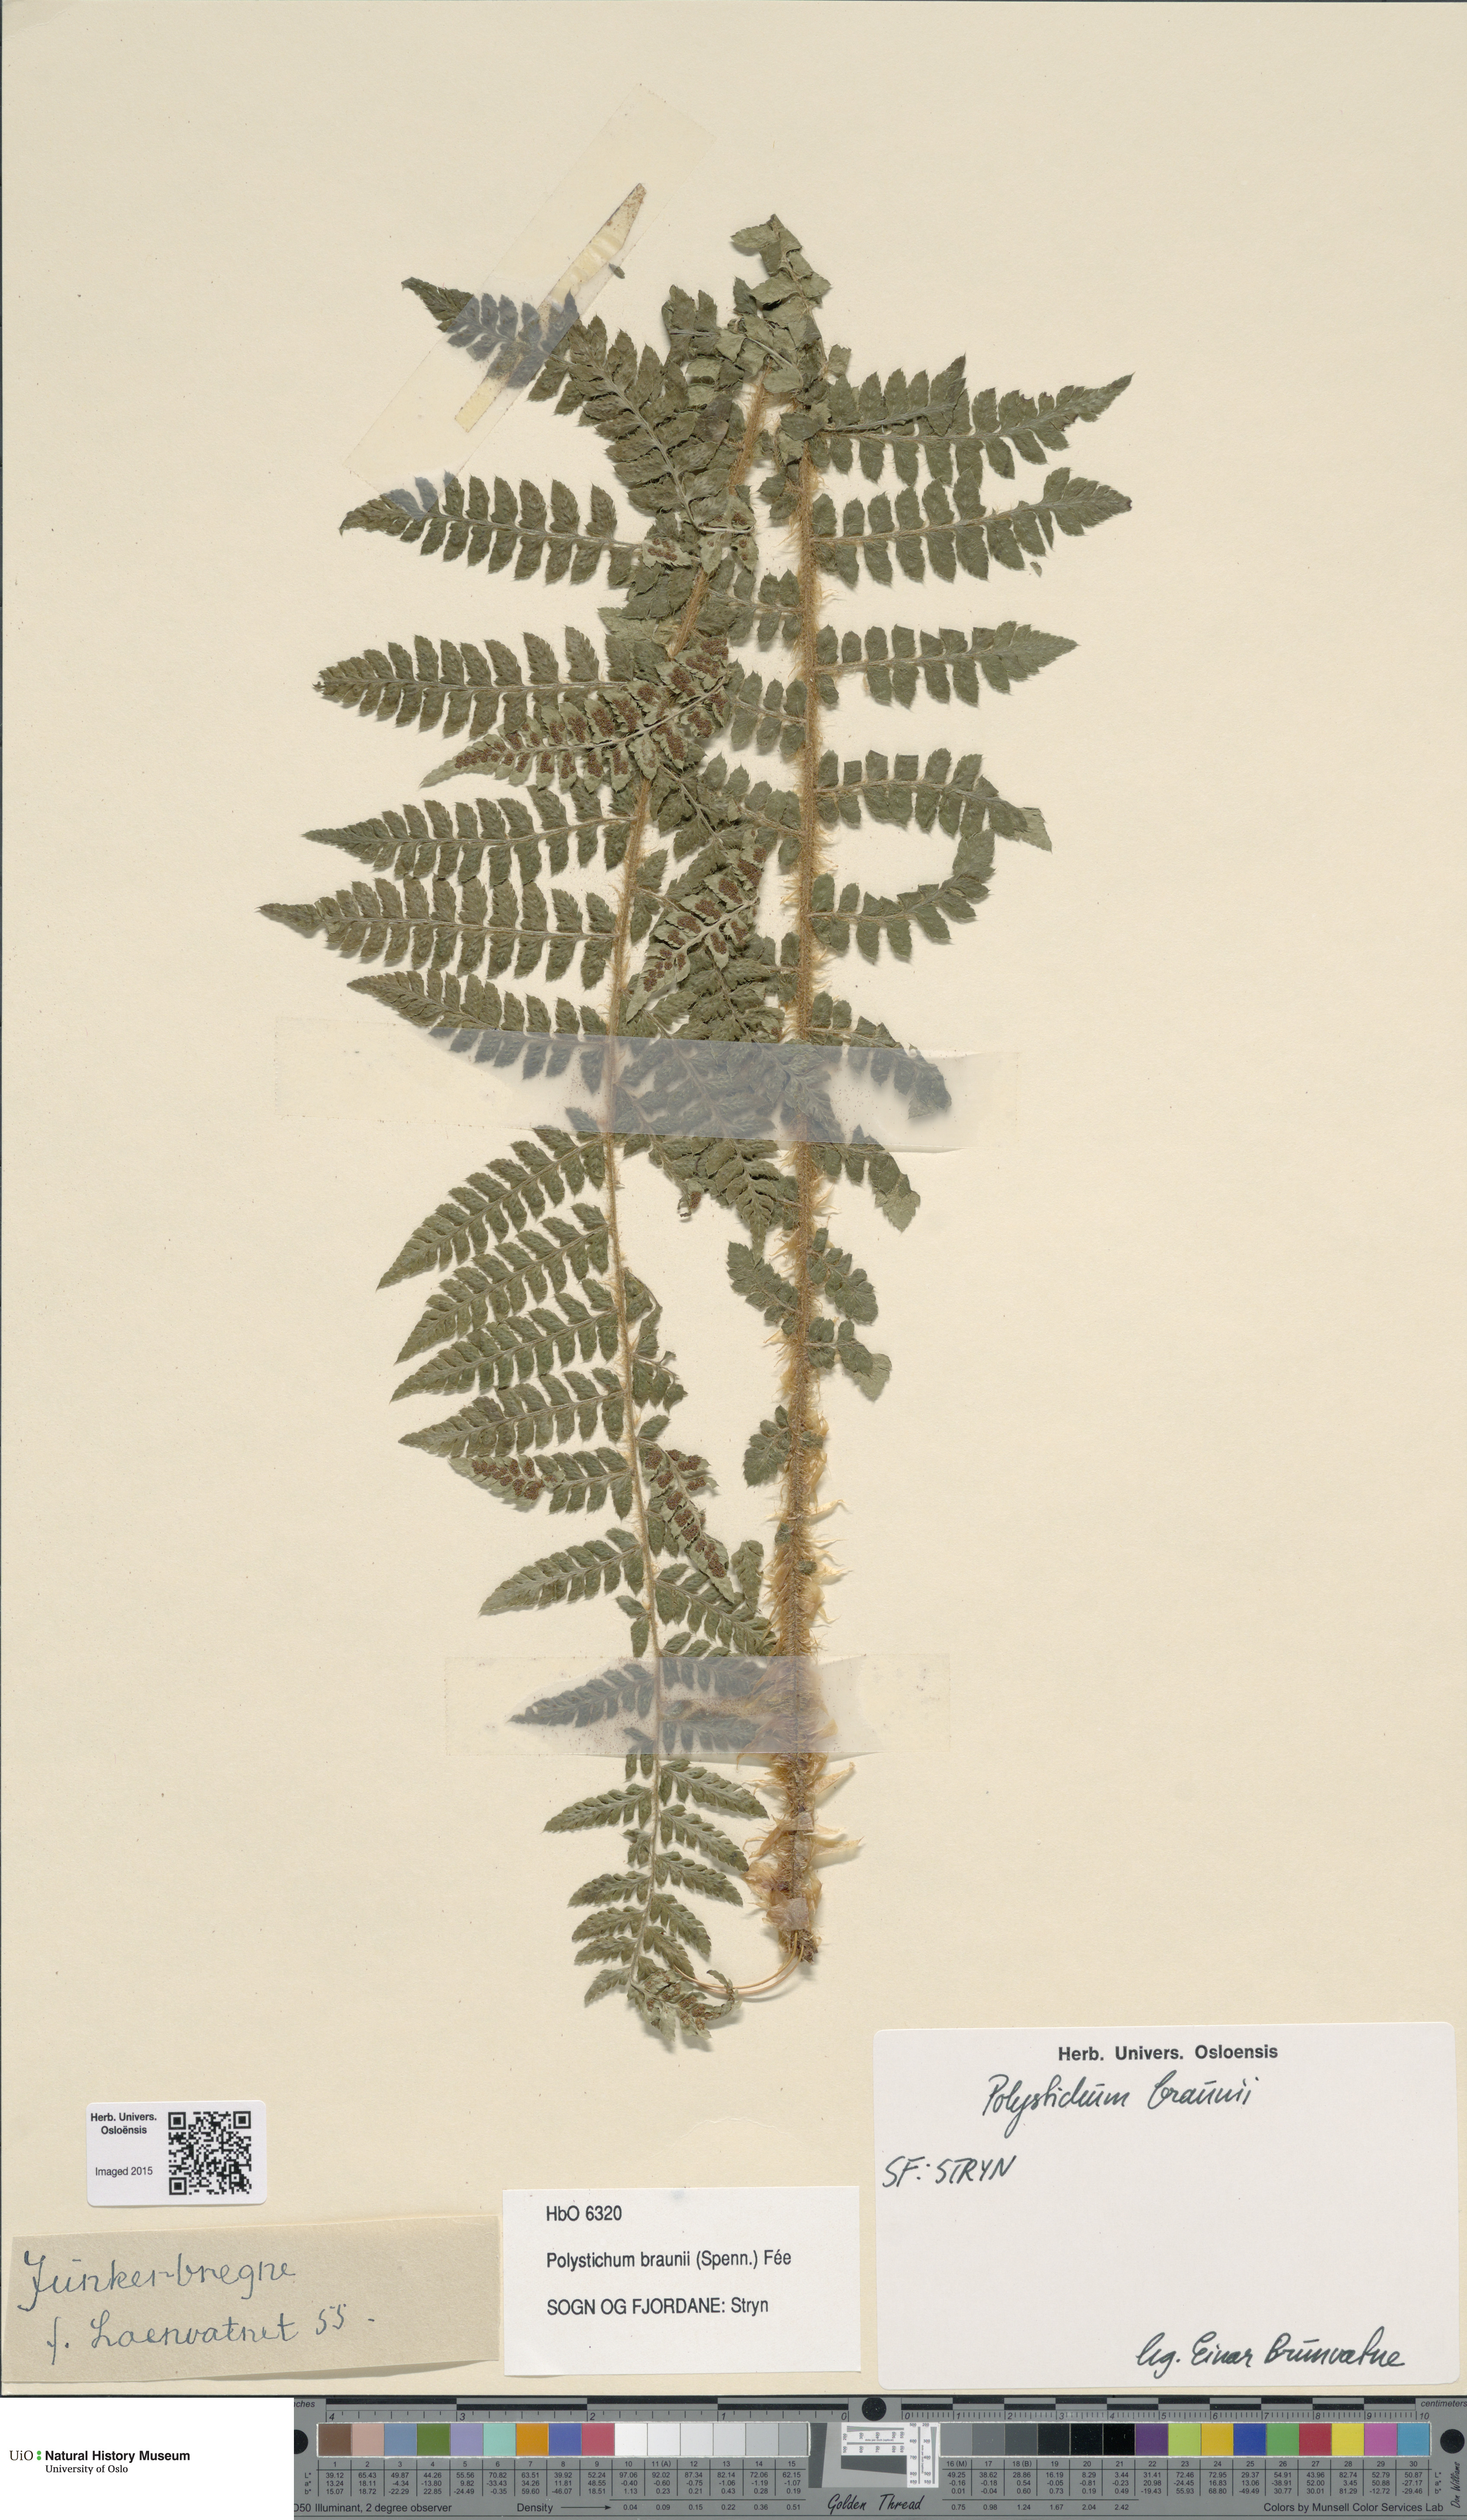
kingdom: Plantae
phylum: Tracheophyta
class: Polypodiopsida
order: Polypodiales
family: Dryopteridaceae
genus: Polystichum
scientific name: Polystichum braunii
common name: Braun's holly fern
